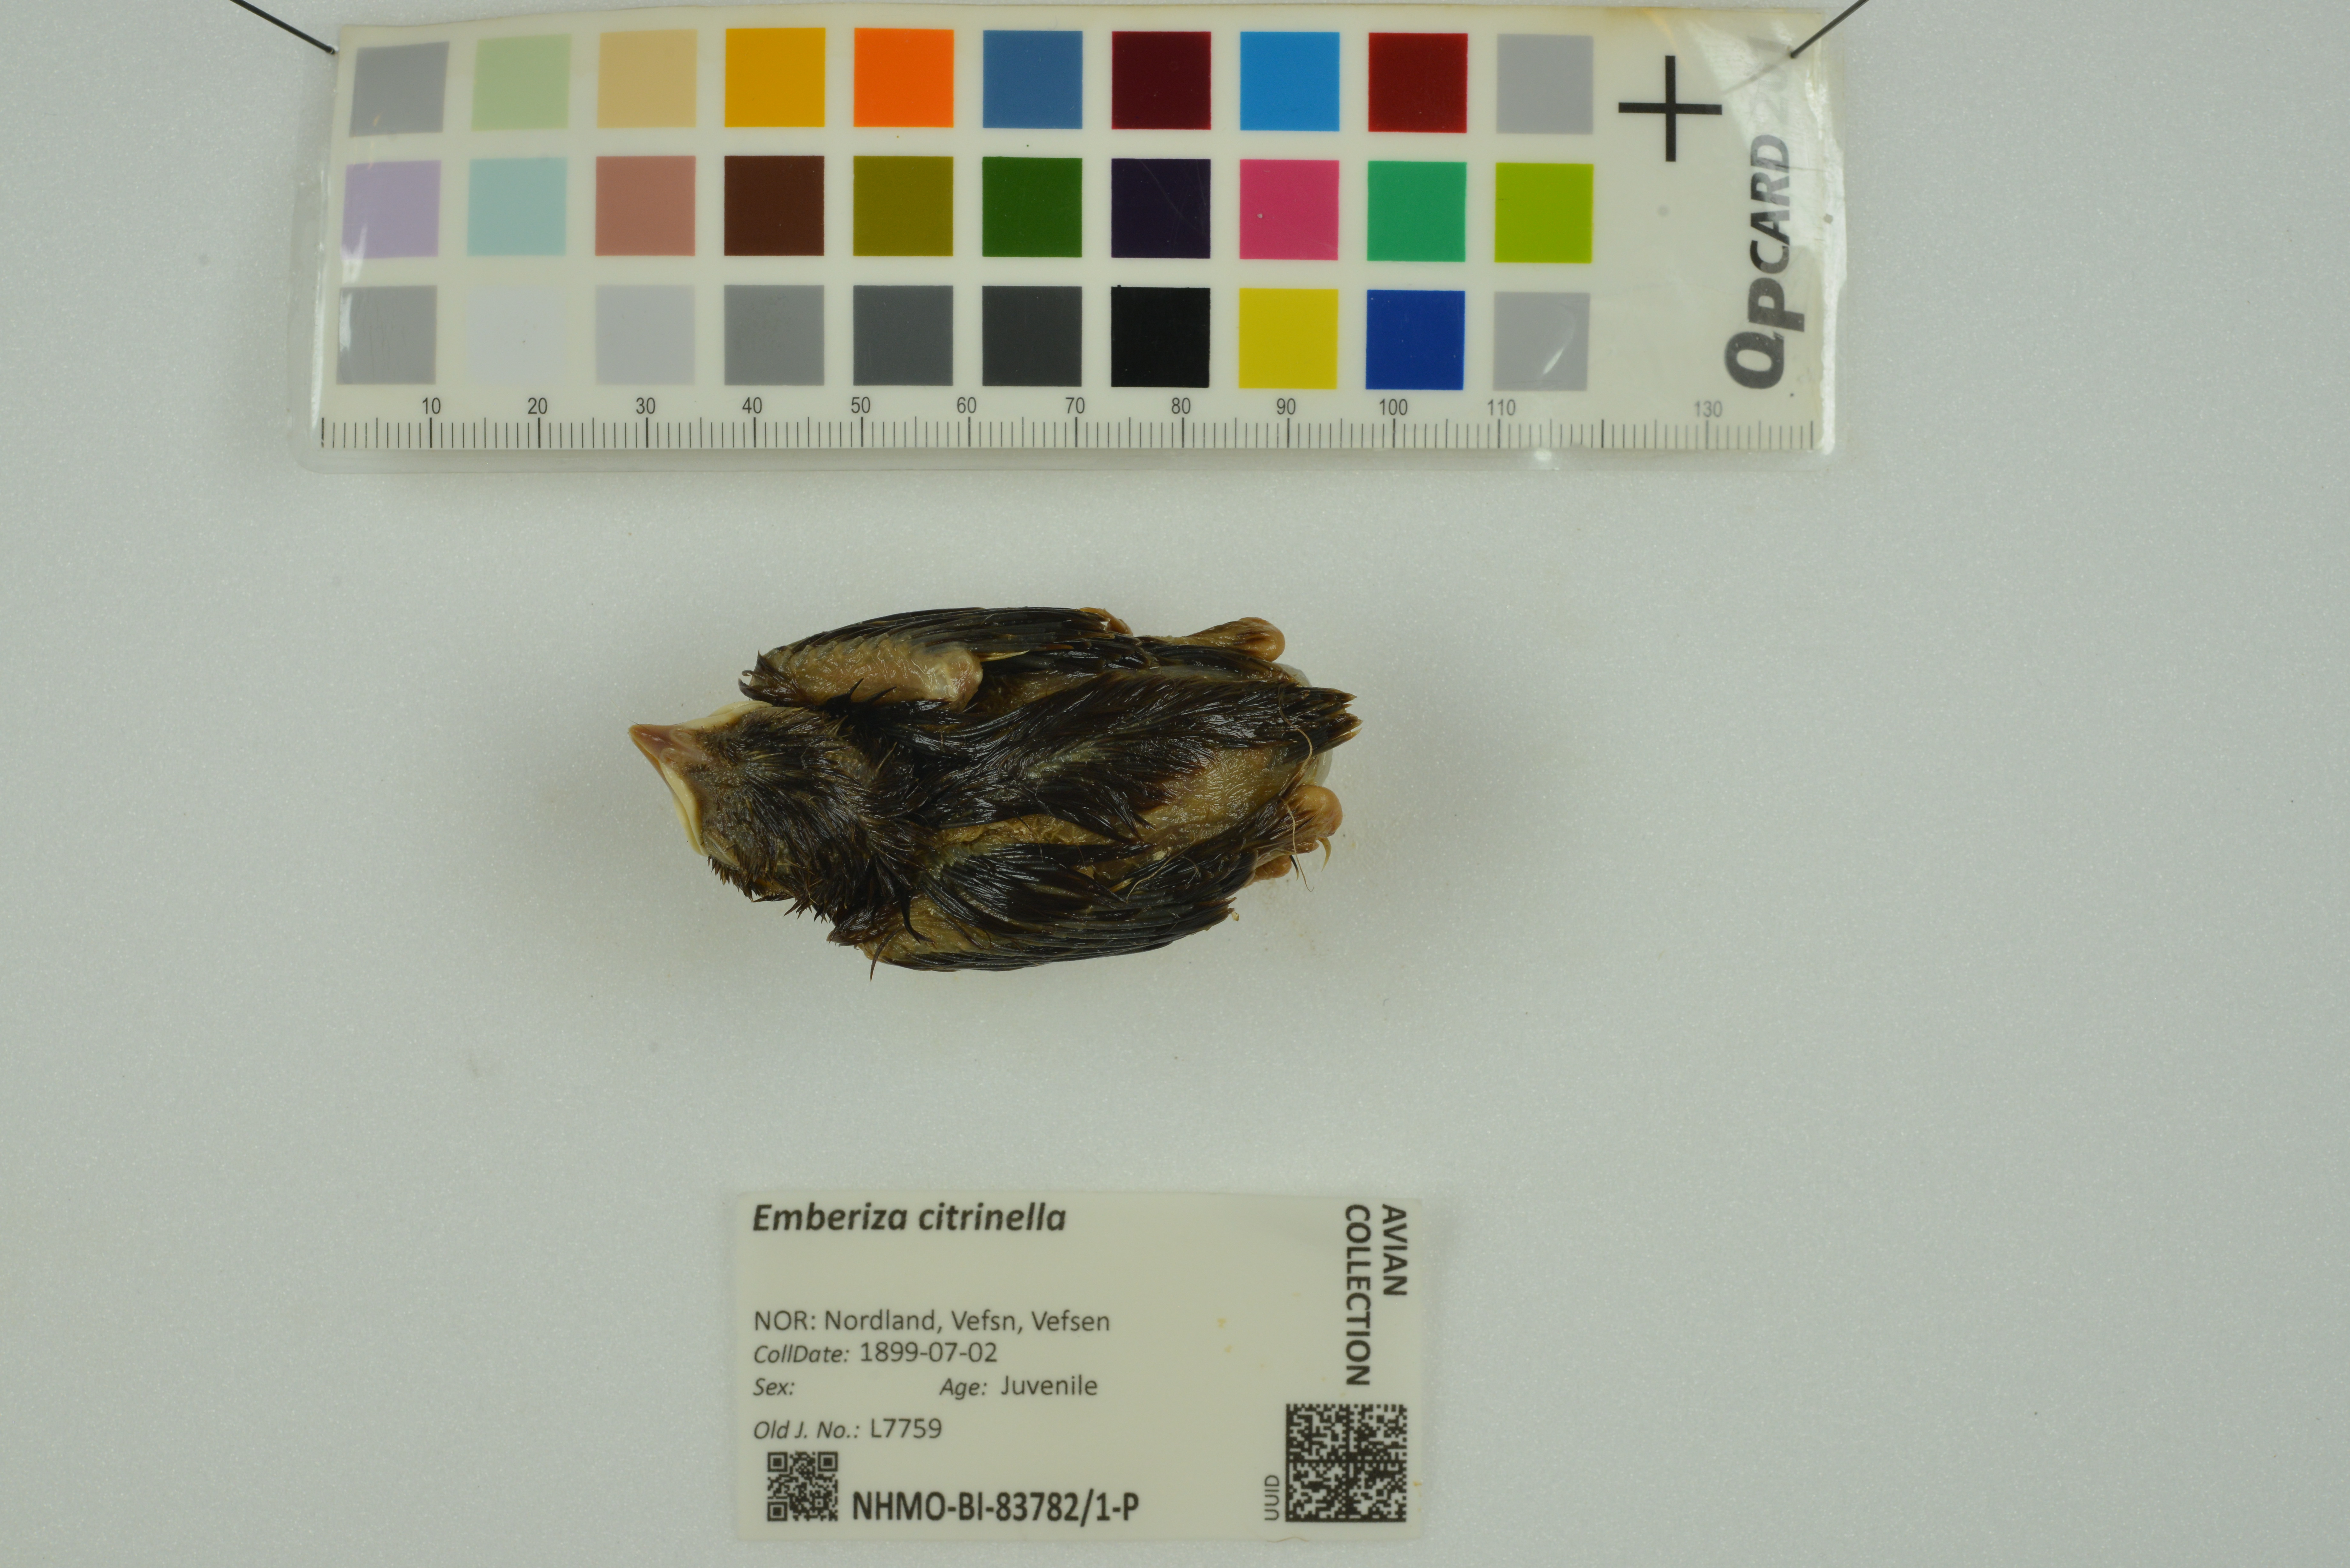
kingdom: Animalia
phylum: Chordata
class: Aves
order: Passeriformes
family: Emberizidae
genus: Emberiza
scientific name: Emberiza citrinella
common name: Yellowhammer
